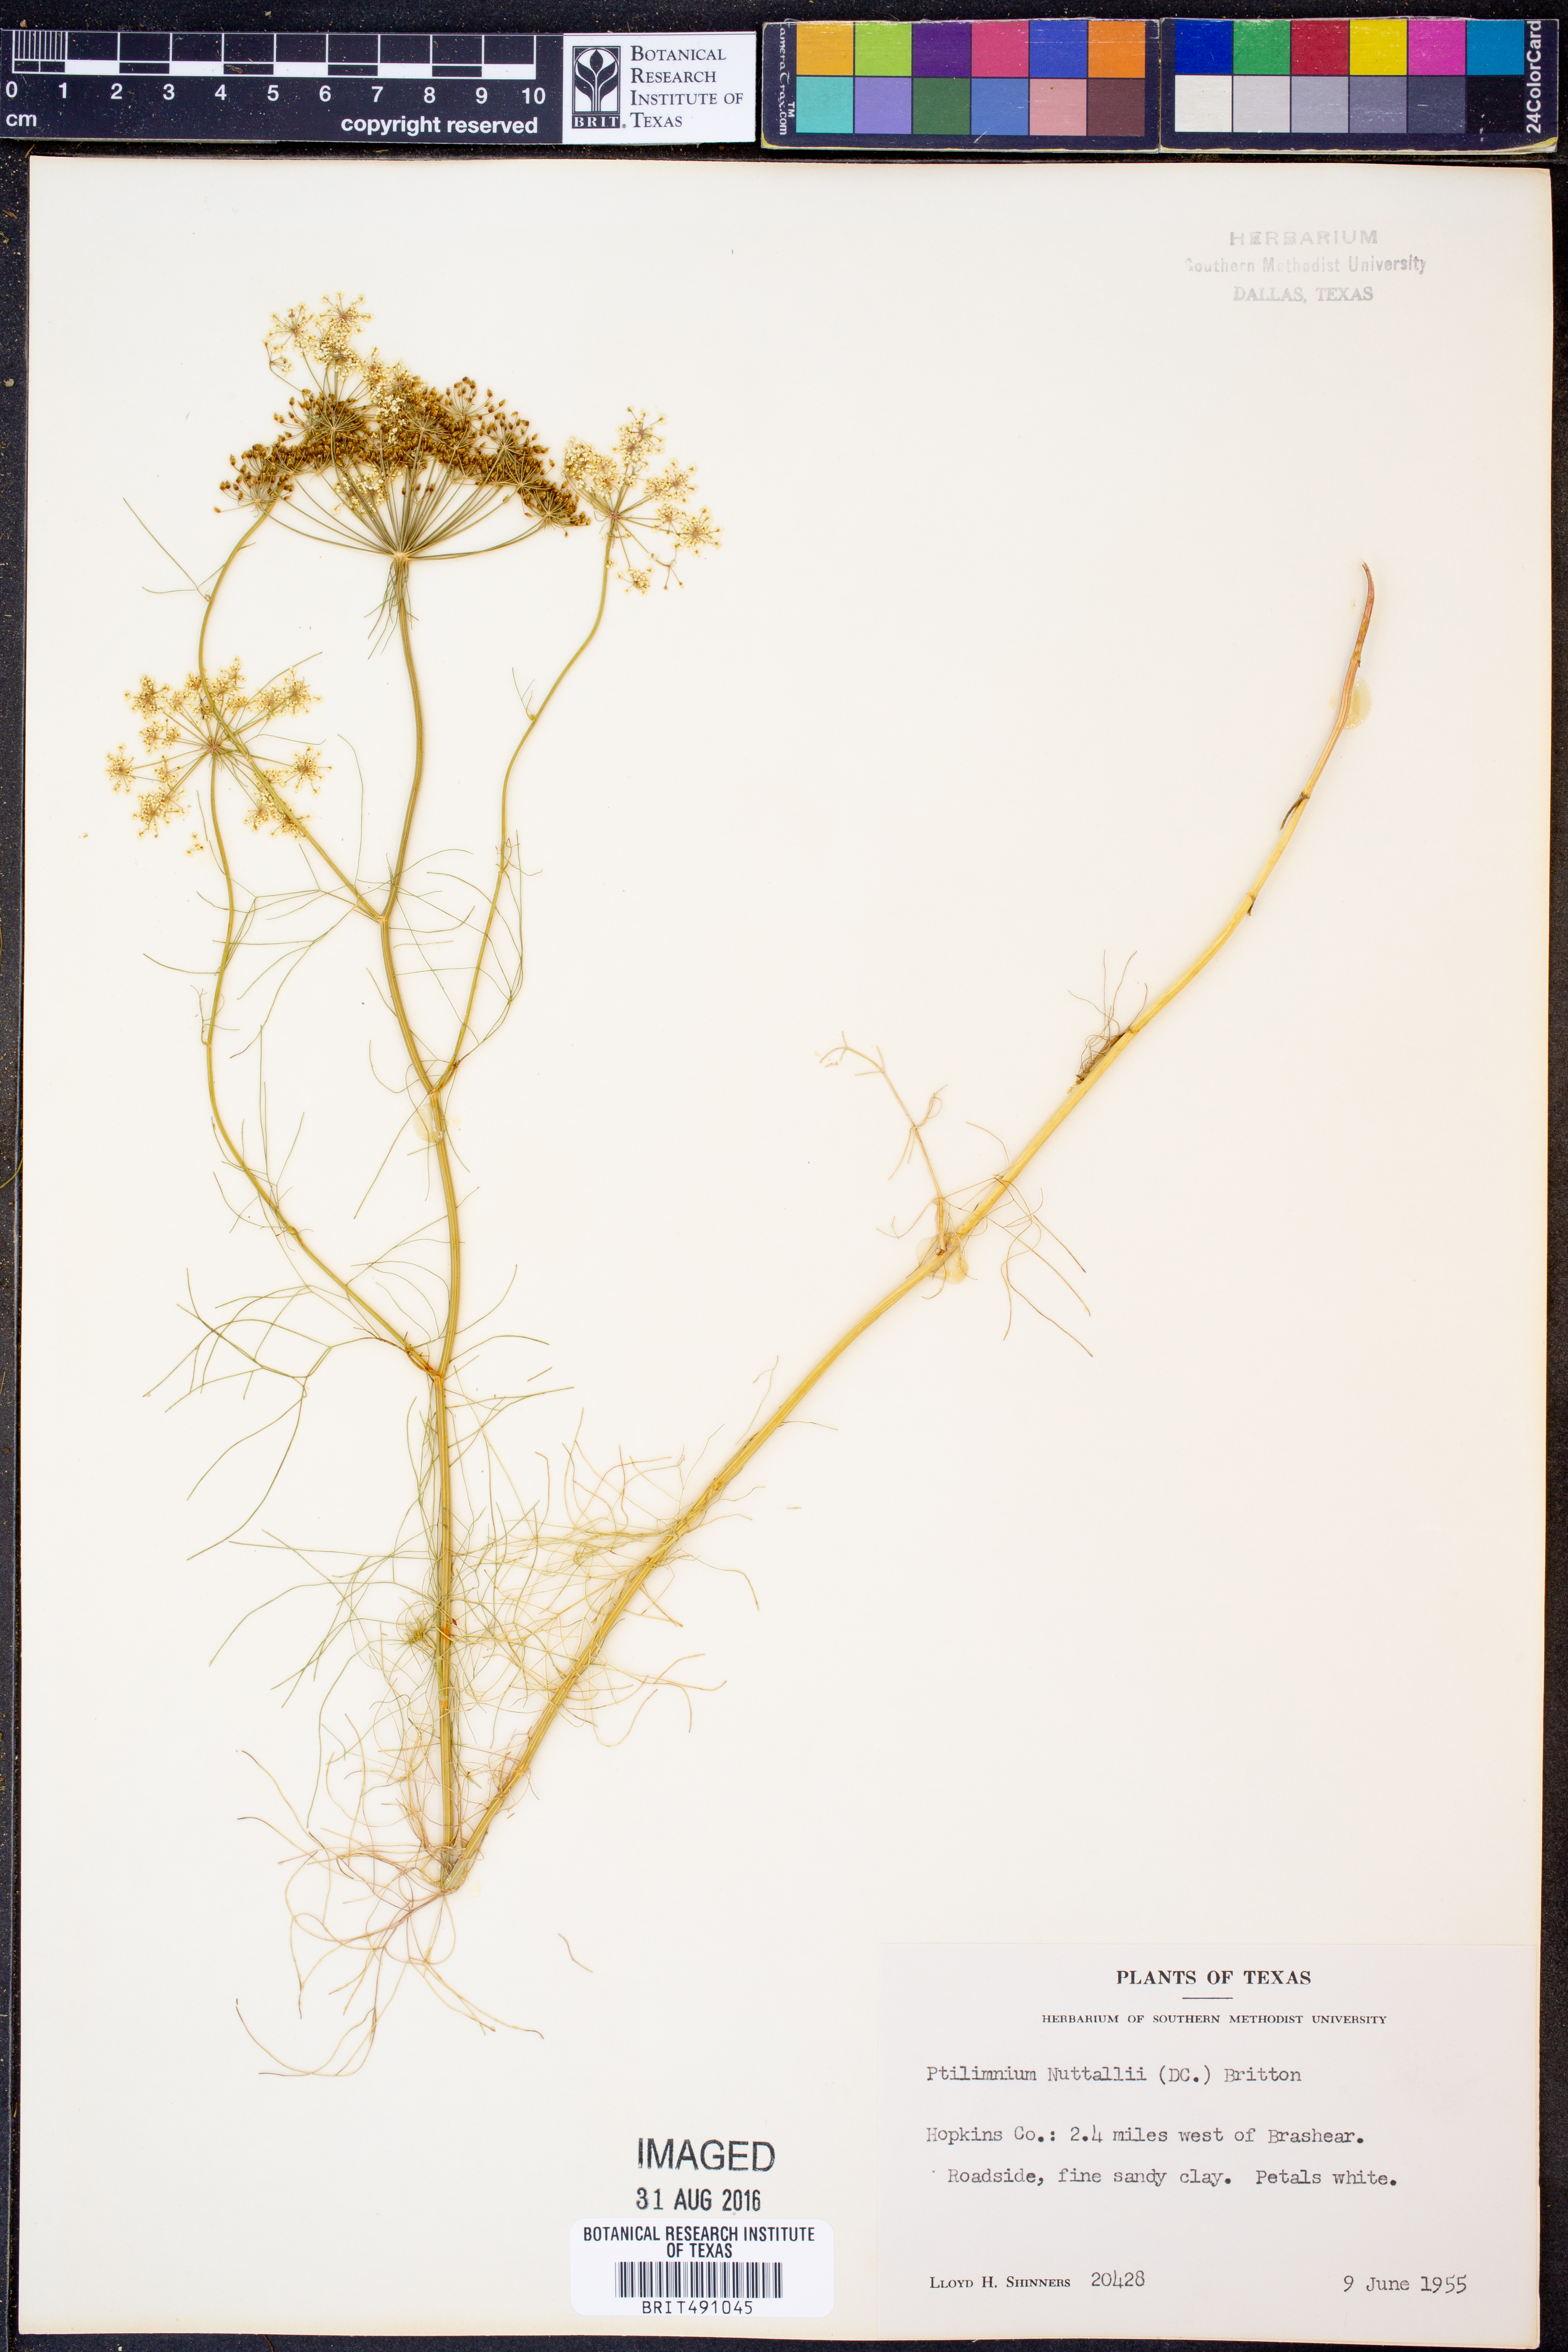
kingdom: Plantae
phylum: Tracheophyta
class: Magnoliopsida
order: Apiales
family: Apiaceae
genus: Ptilimnium
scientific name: Ptilimnium nuttallii
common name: Ozark bishop's-weed
